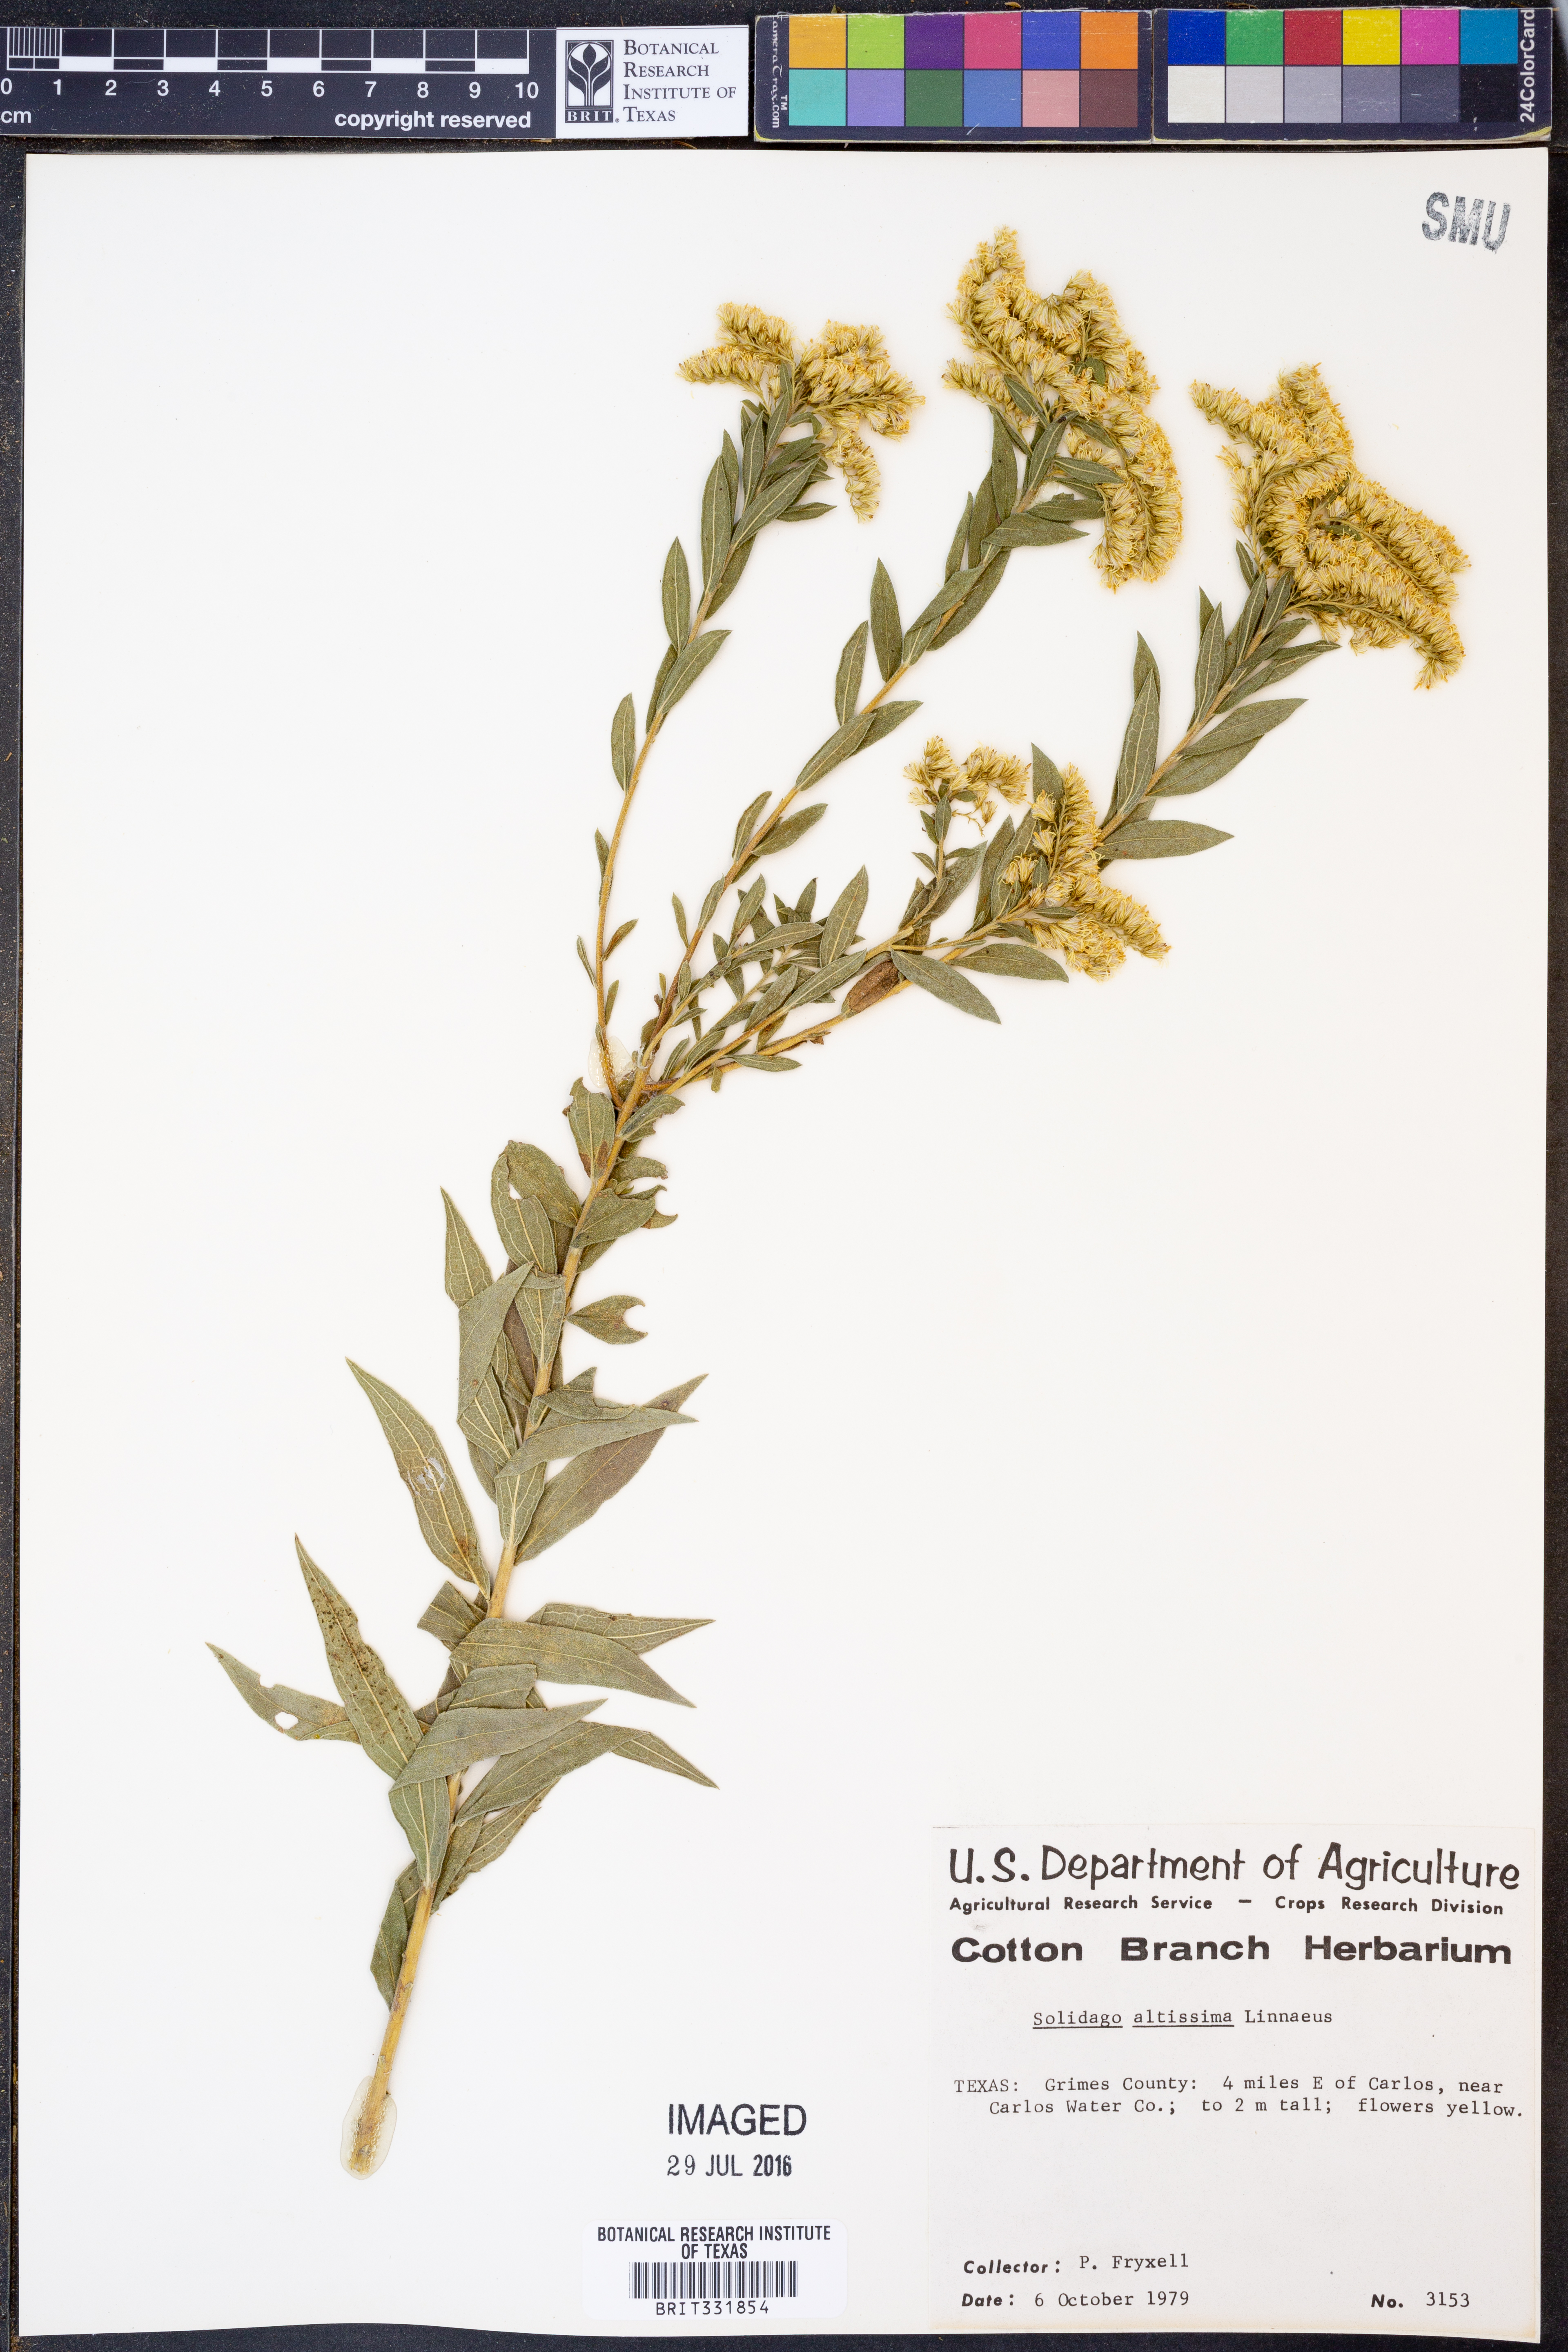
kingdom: Plantae
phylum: Tracheophyta
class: Magnoliopsida
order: Asterales
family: Asteraceae
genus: Solidago
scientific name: Solidago altissima
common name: Late goldenrod
